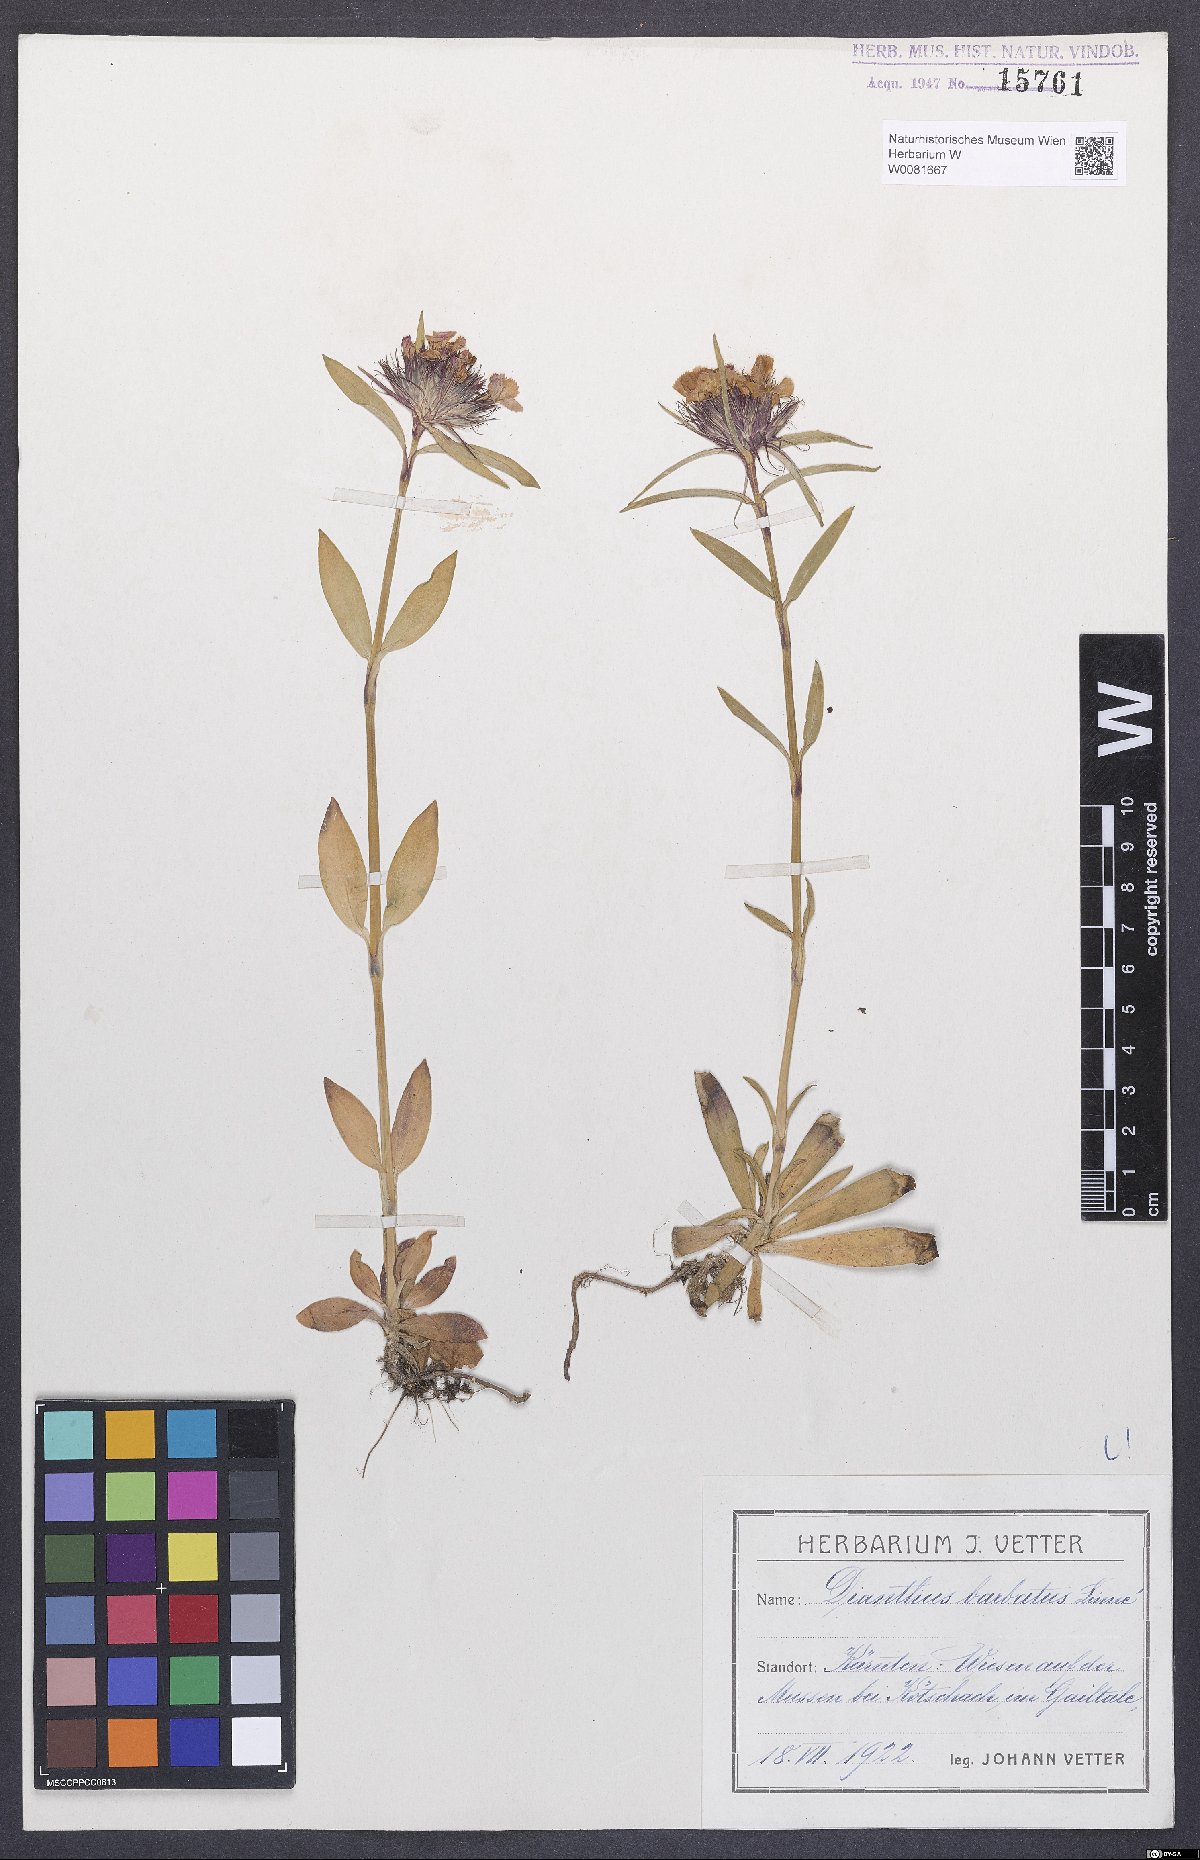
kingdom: Plantae
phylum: Tracheophyta
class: Magnoliopsida
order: Caryophyllales
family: Caryophyllaceae
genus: Dianthus
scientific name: Dianthus barbatus
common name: Sweet-william
